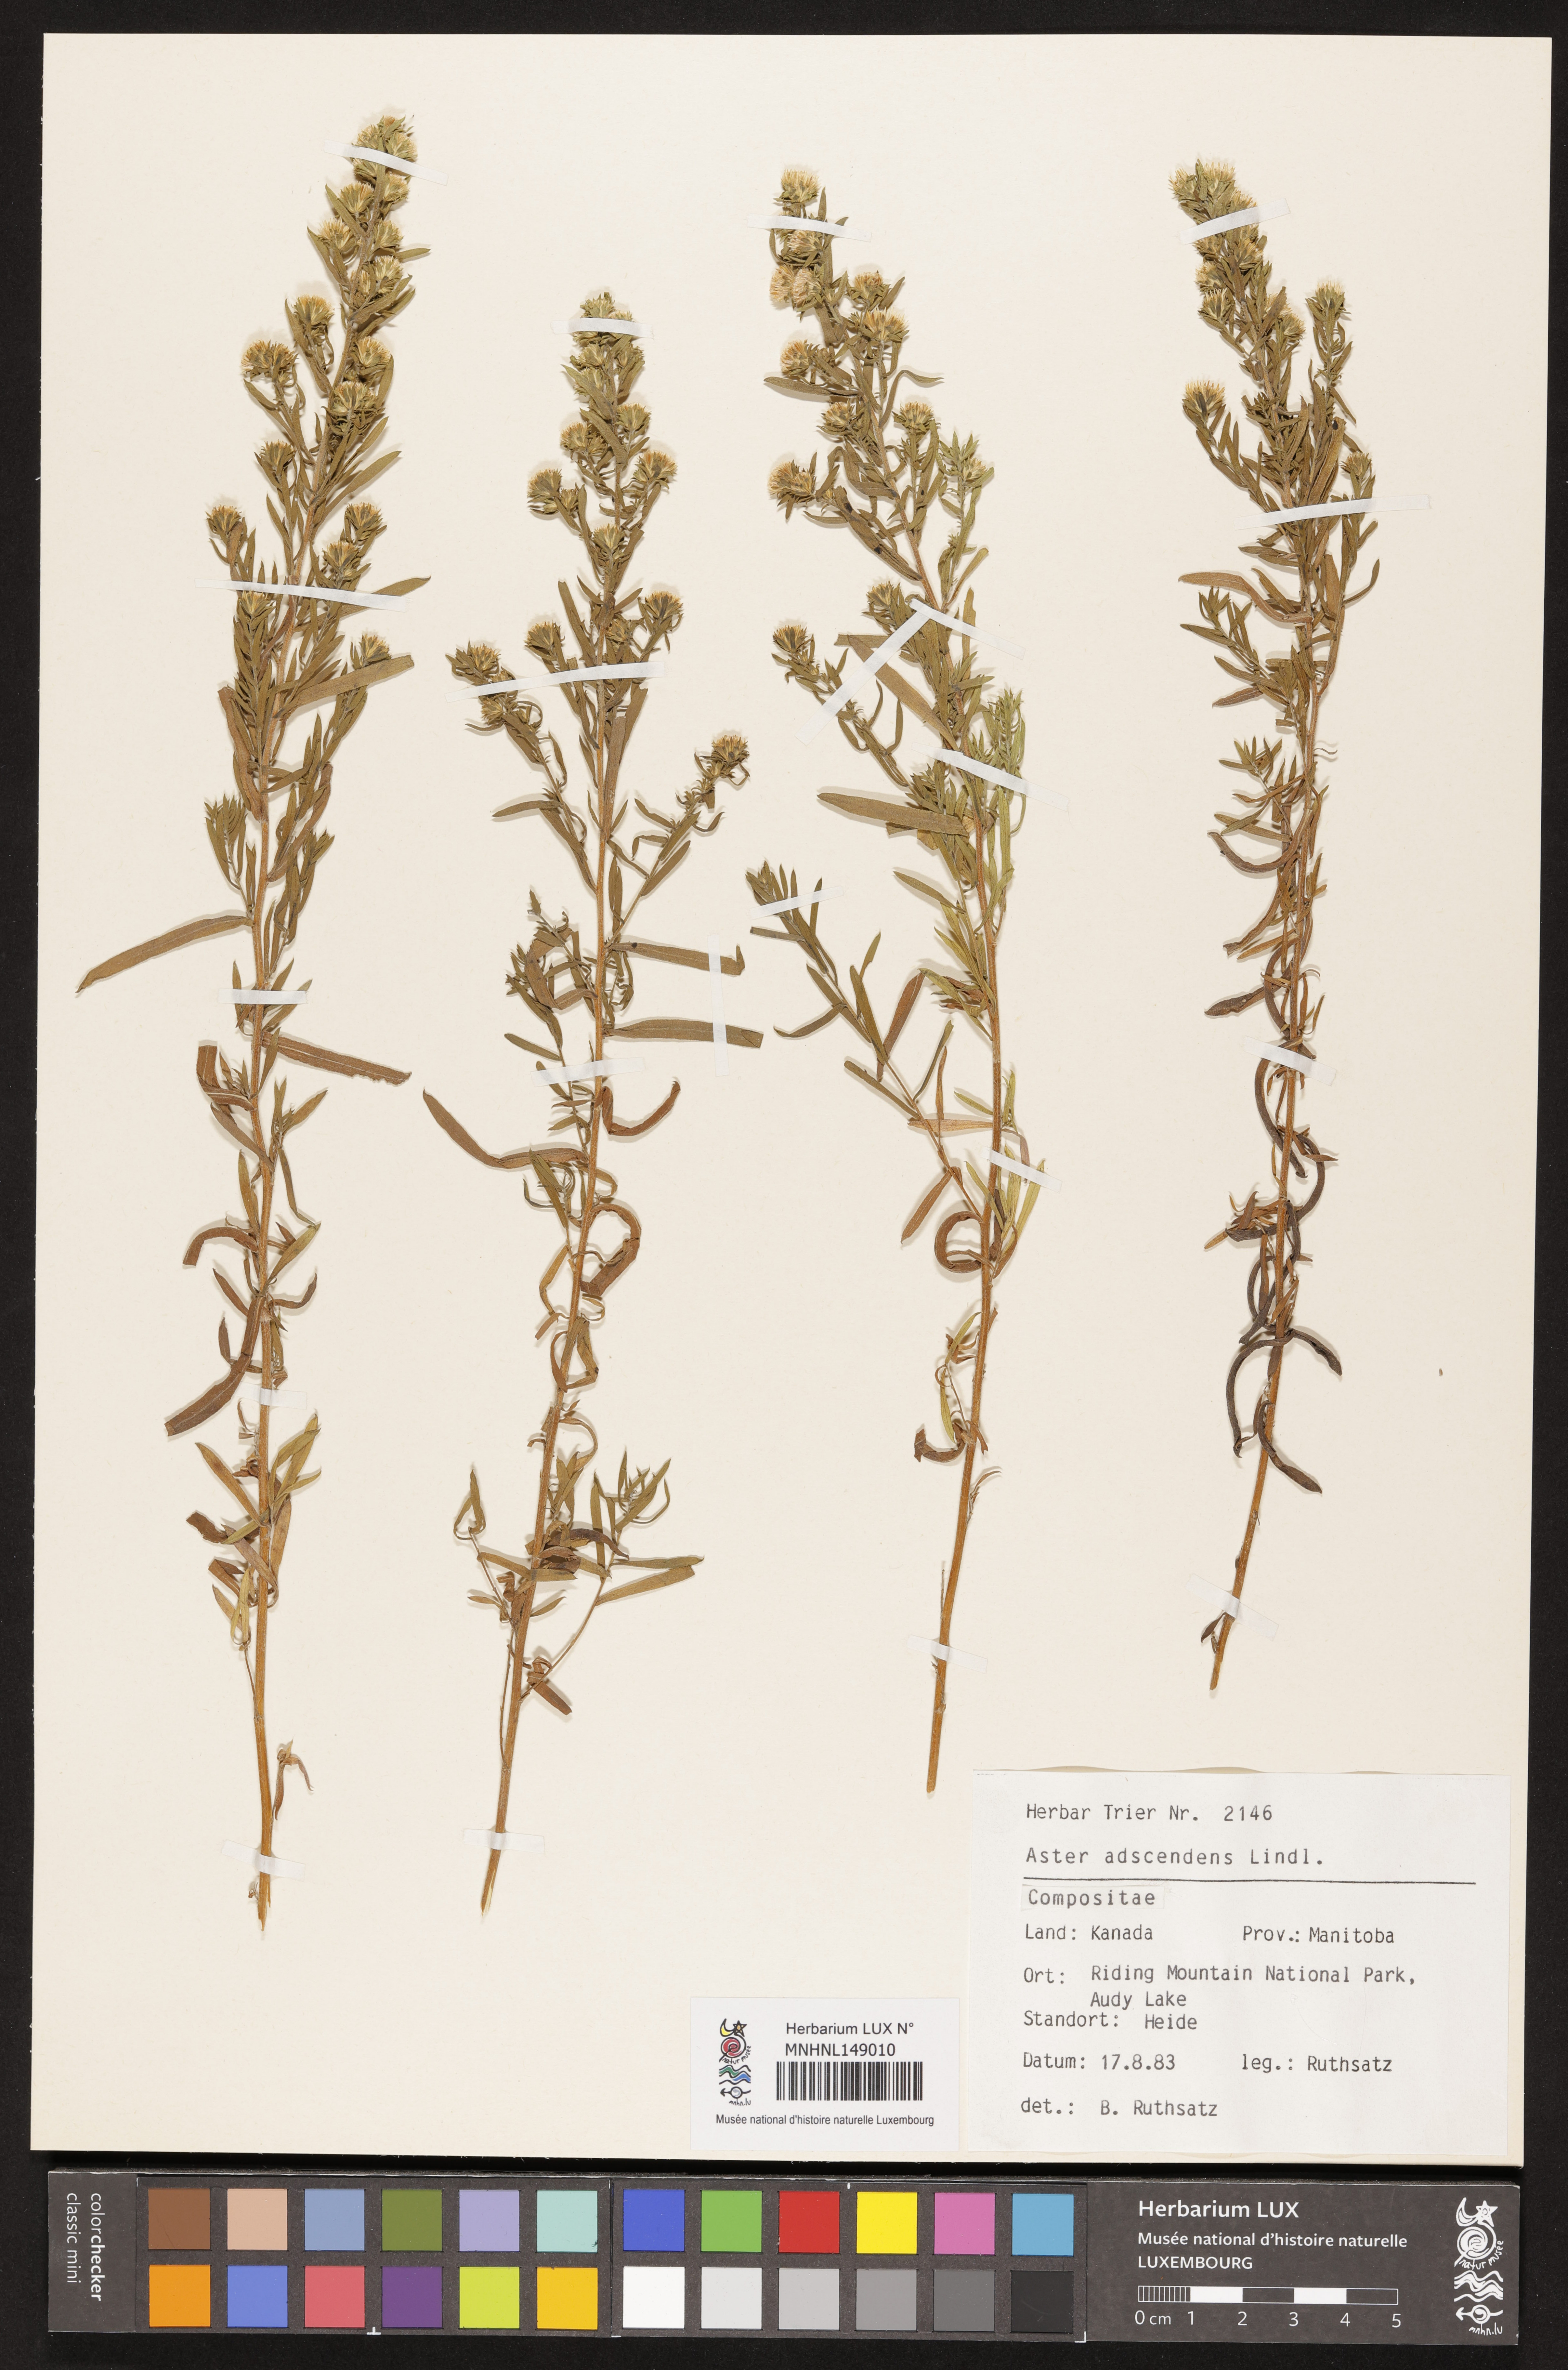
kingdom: Plantae
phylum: Tracheophyta
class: Magnoliopsida
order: Asterales
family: Asteraceae
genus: Symphyotrichum
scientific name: Symphyotrichum ascendens
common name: Intermountain aster
